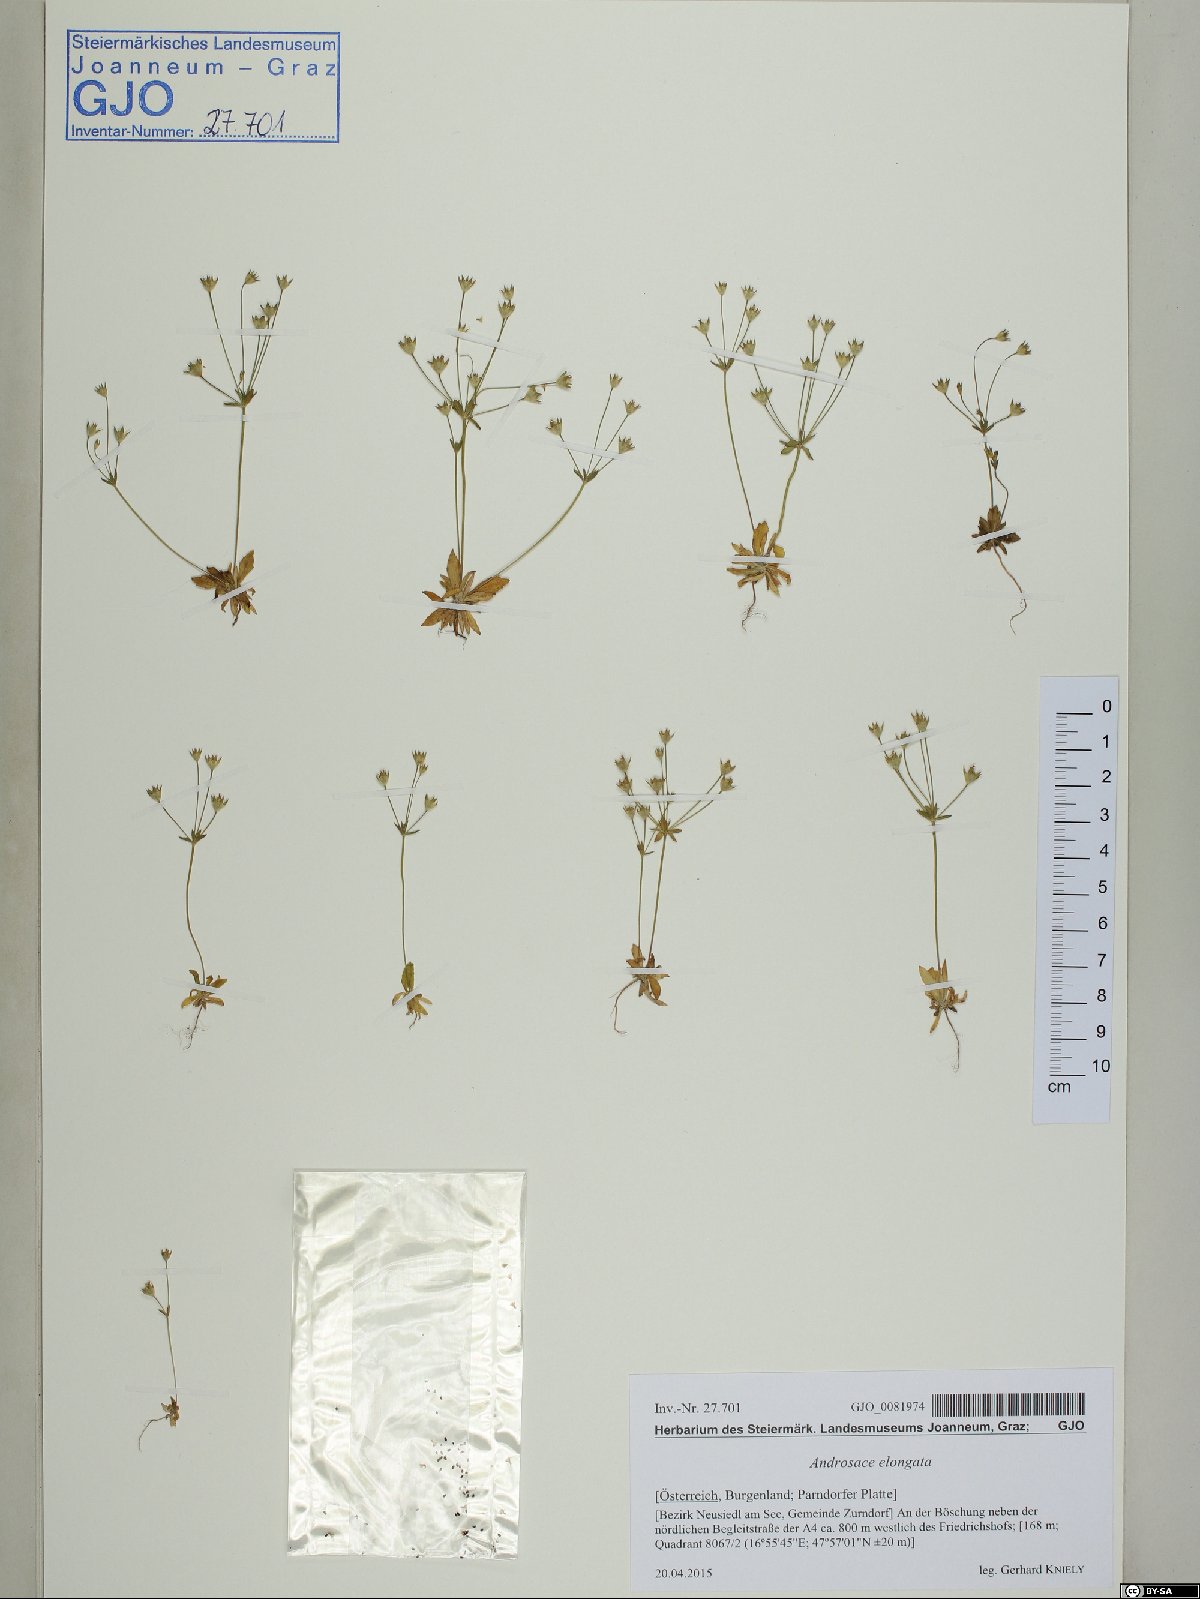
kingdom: Plantae
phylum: Tracheophyta
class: Magnoliopsida
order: Ericales
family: Primulaceae
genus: Androsace
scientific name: Androsace elongata
